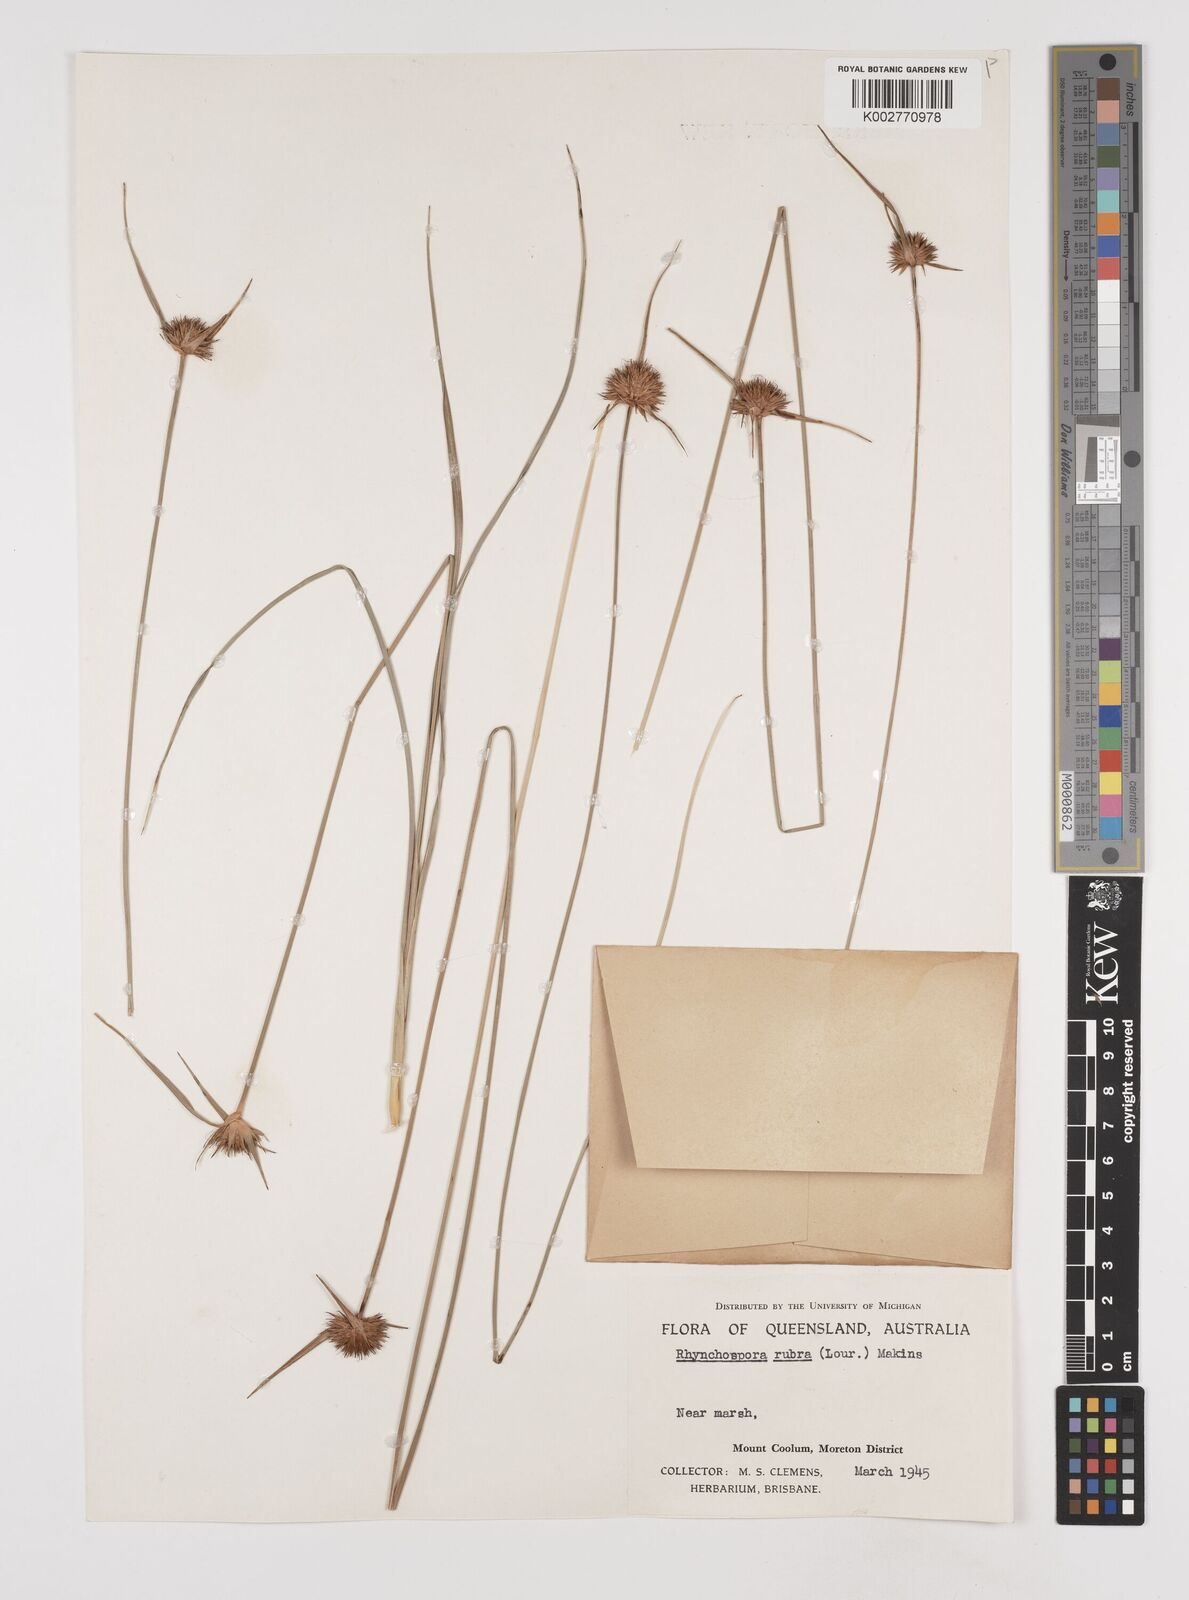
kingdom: Plantae
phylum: Tracheophyta
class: Liliopsida
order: Poales
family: Cyperaceae
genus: Rhynchospora
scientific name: Rhynchospora rubra
